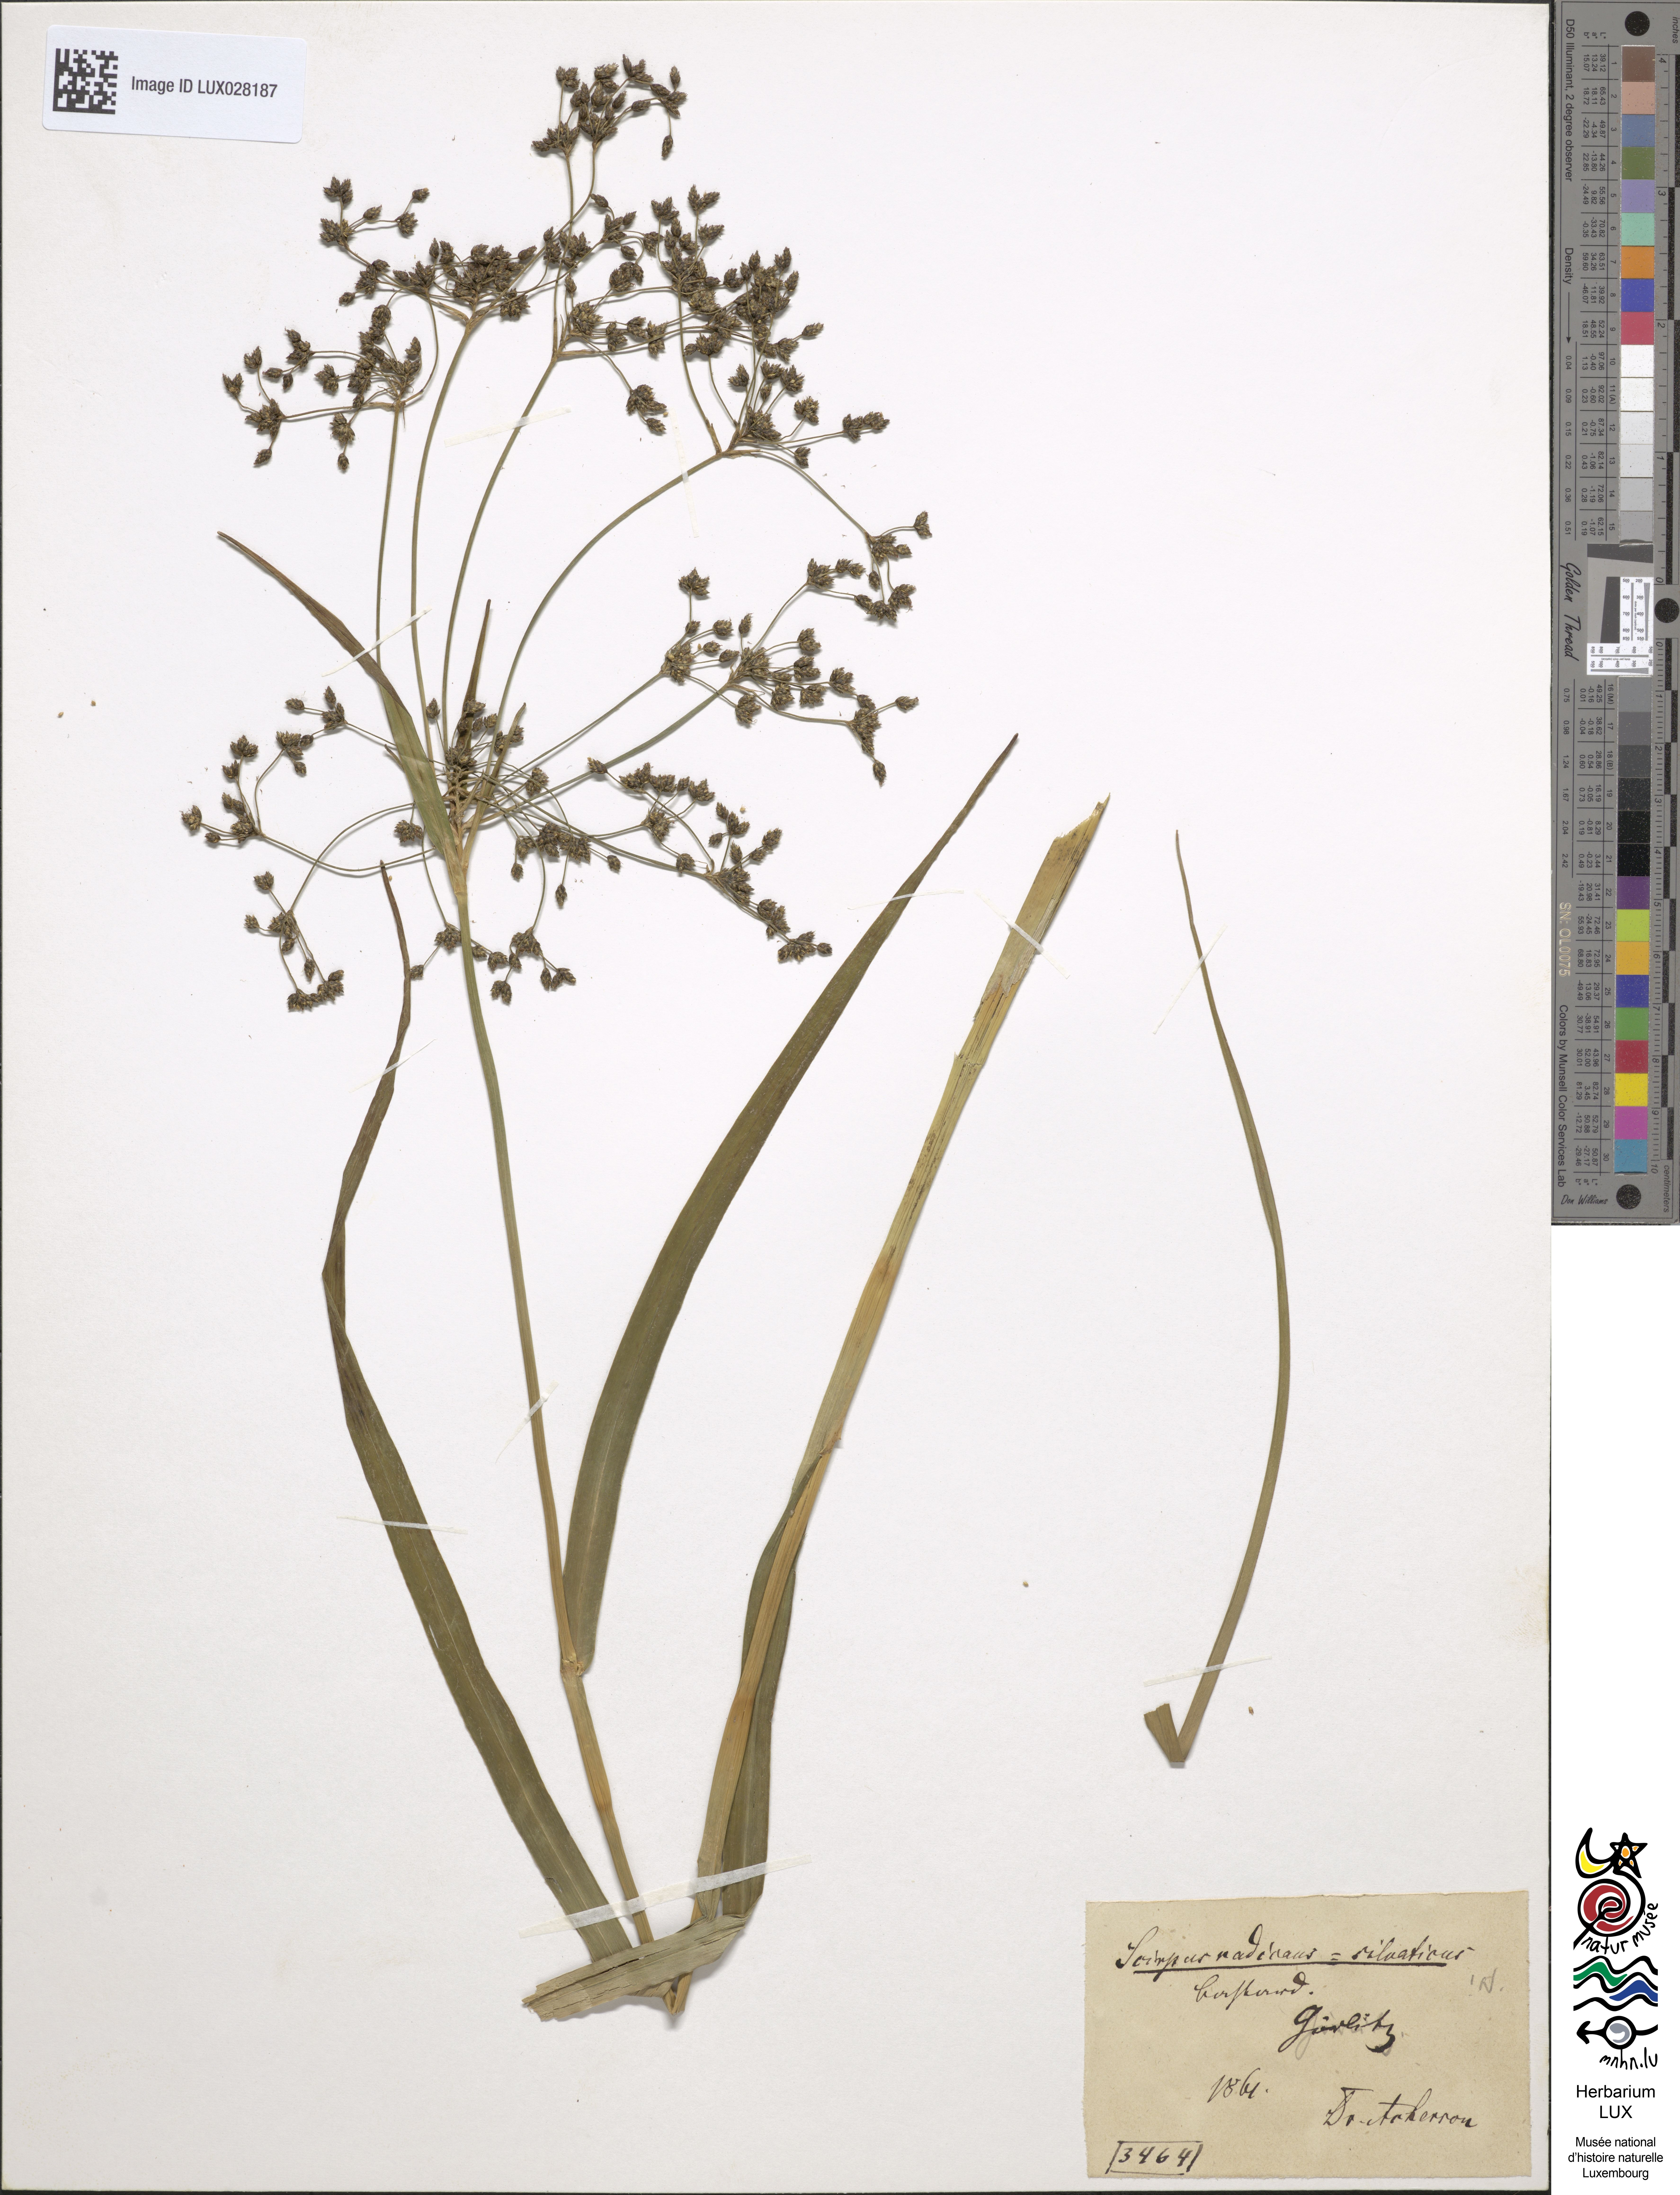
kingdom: Plantae
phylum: Tracheophyta
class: Liliopsida
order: Poales
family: Cyperaceae
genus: Scirpus
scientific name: Scirpus celakovskyanus
